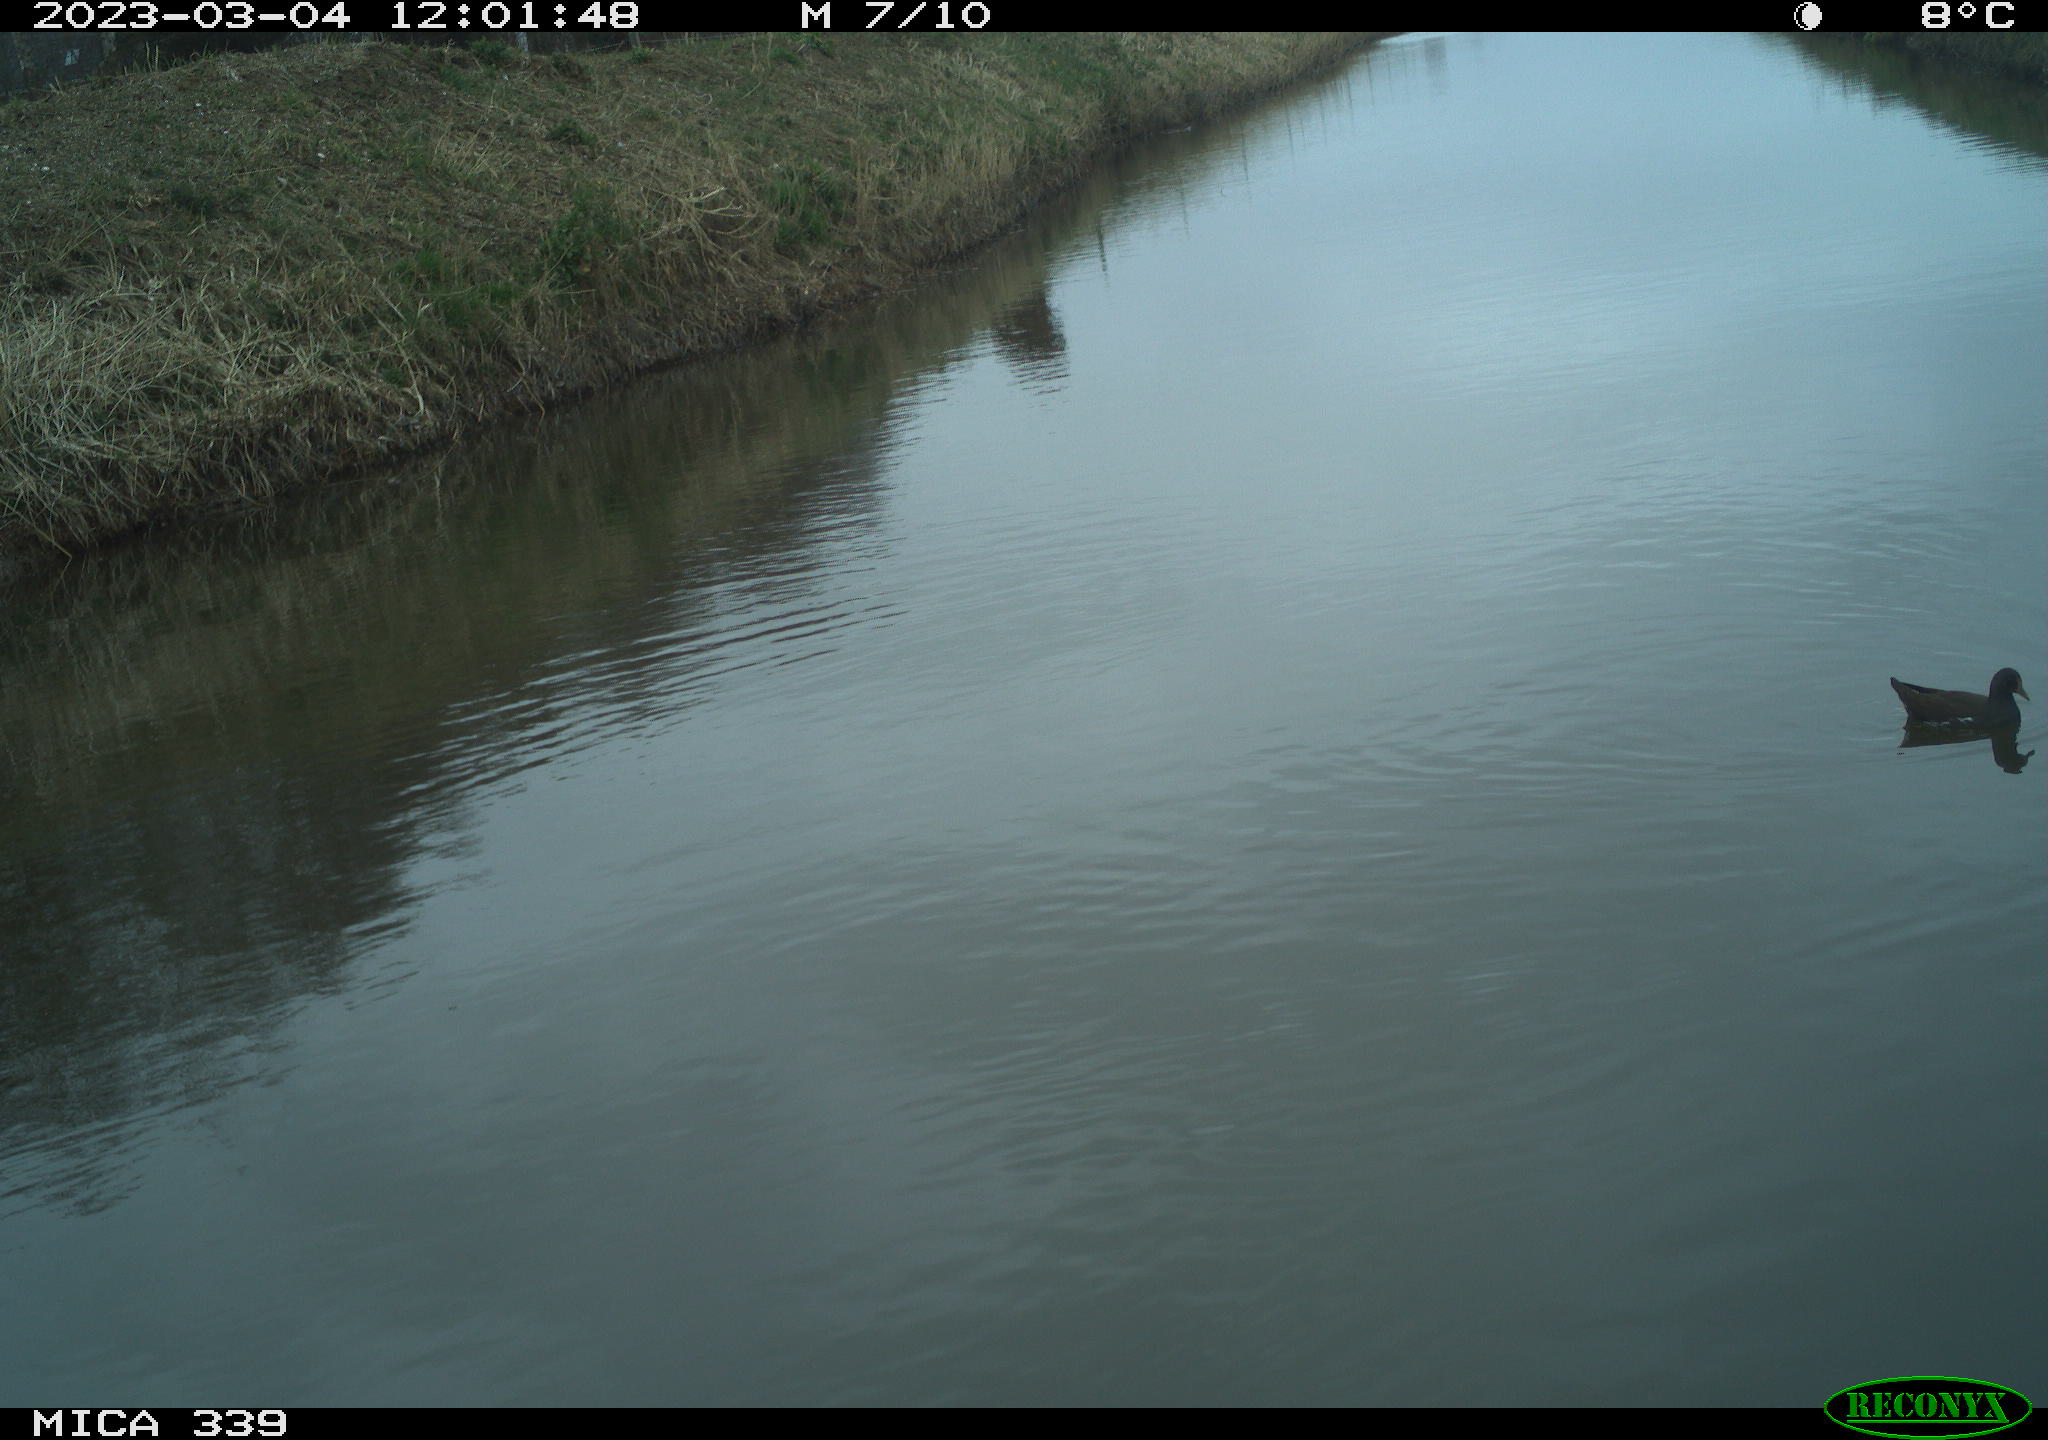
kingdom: Animalia
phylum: Chordata
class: Aves
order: Gruiformes
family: Rallidae
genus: Gallinula
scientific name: Gallinula chloropus
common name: Common moorhen
